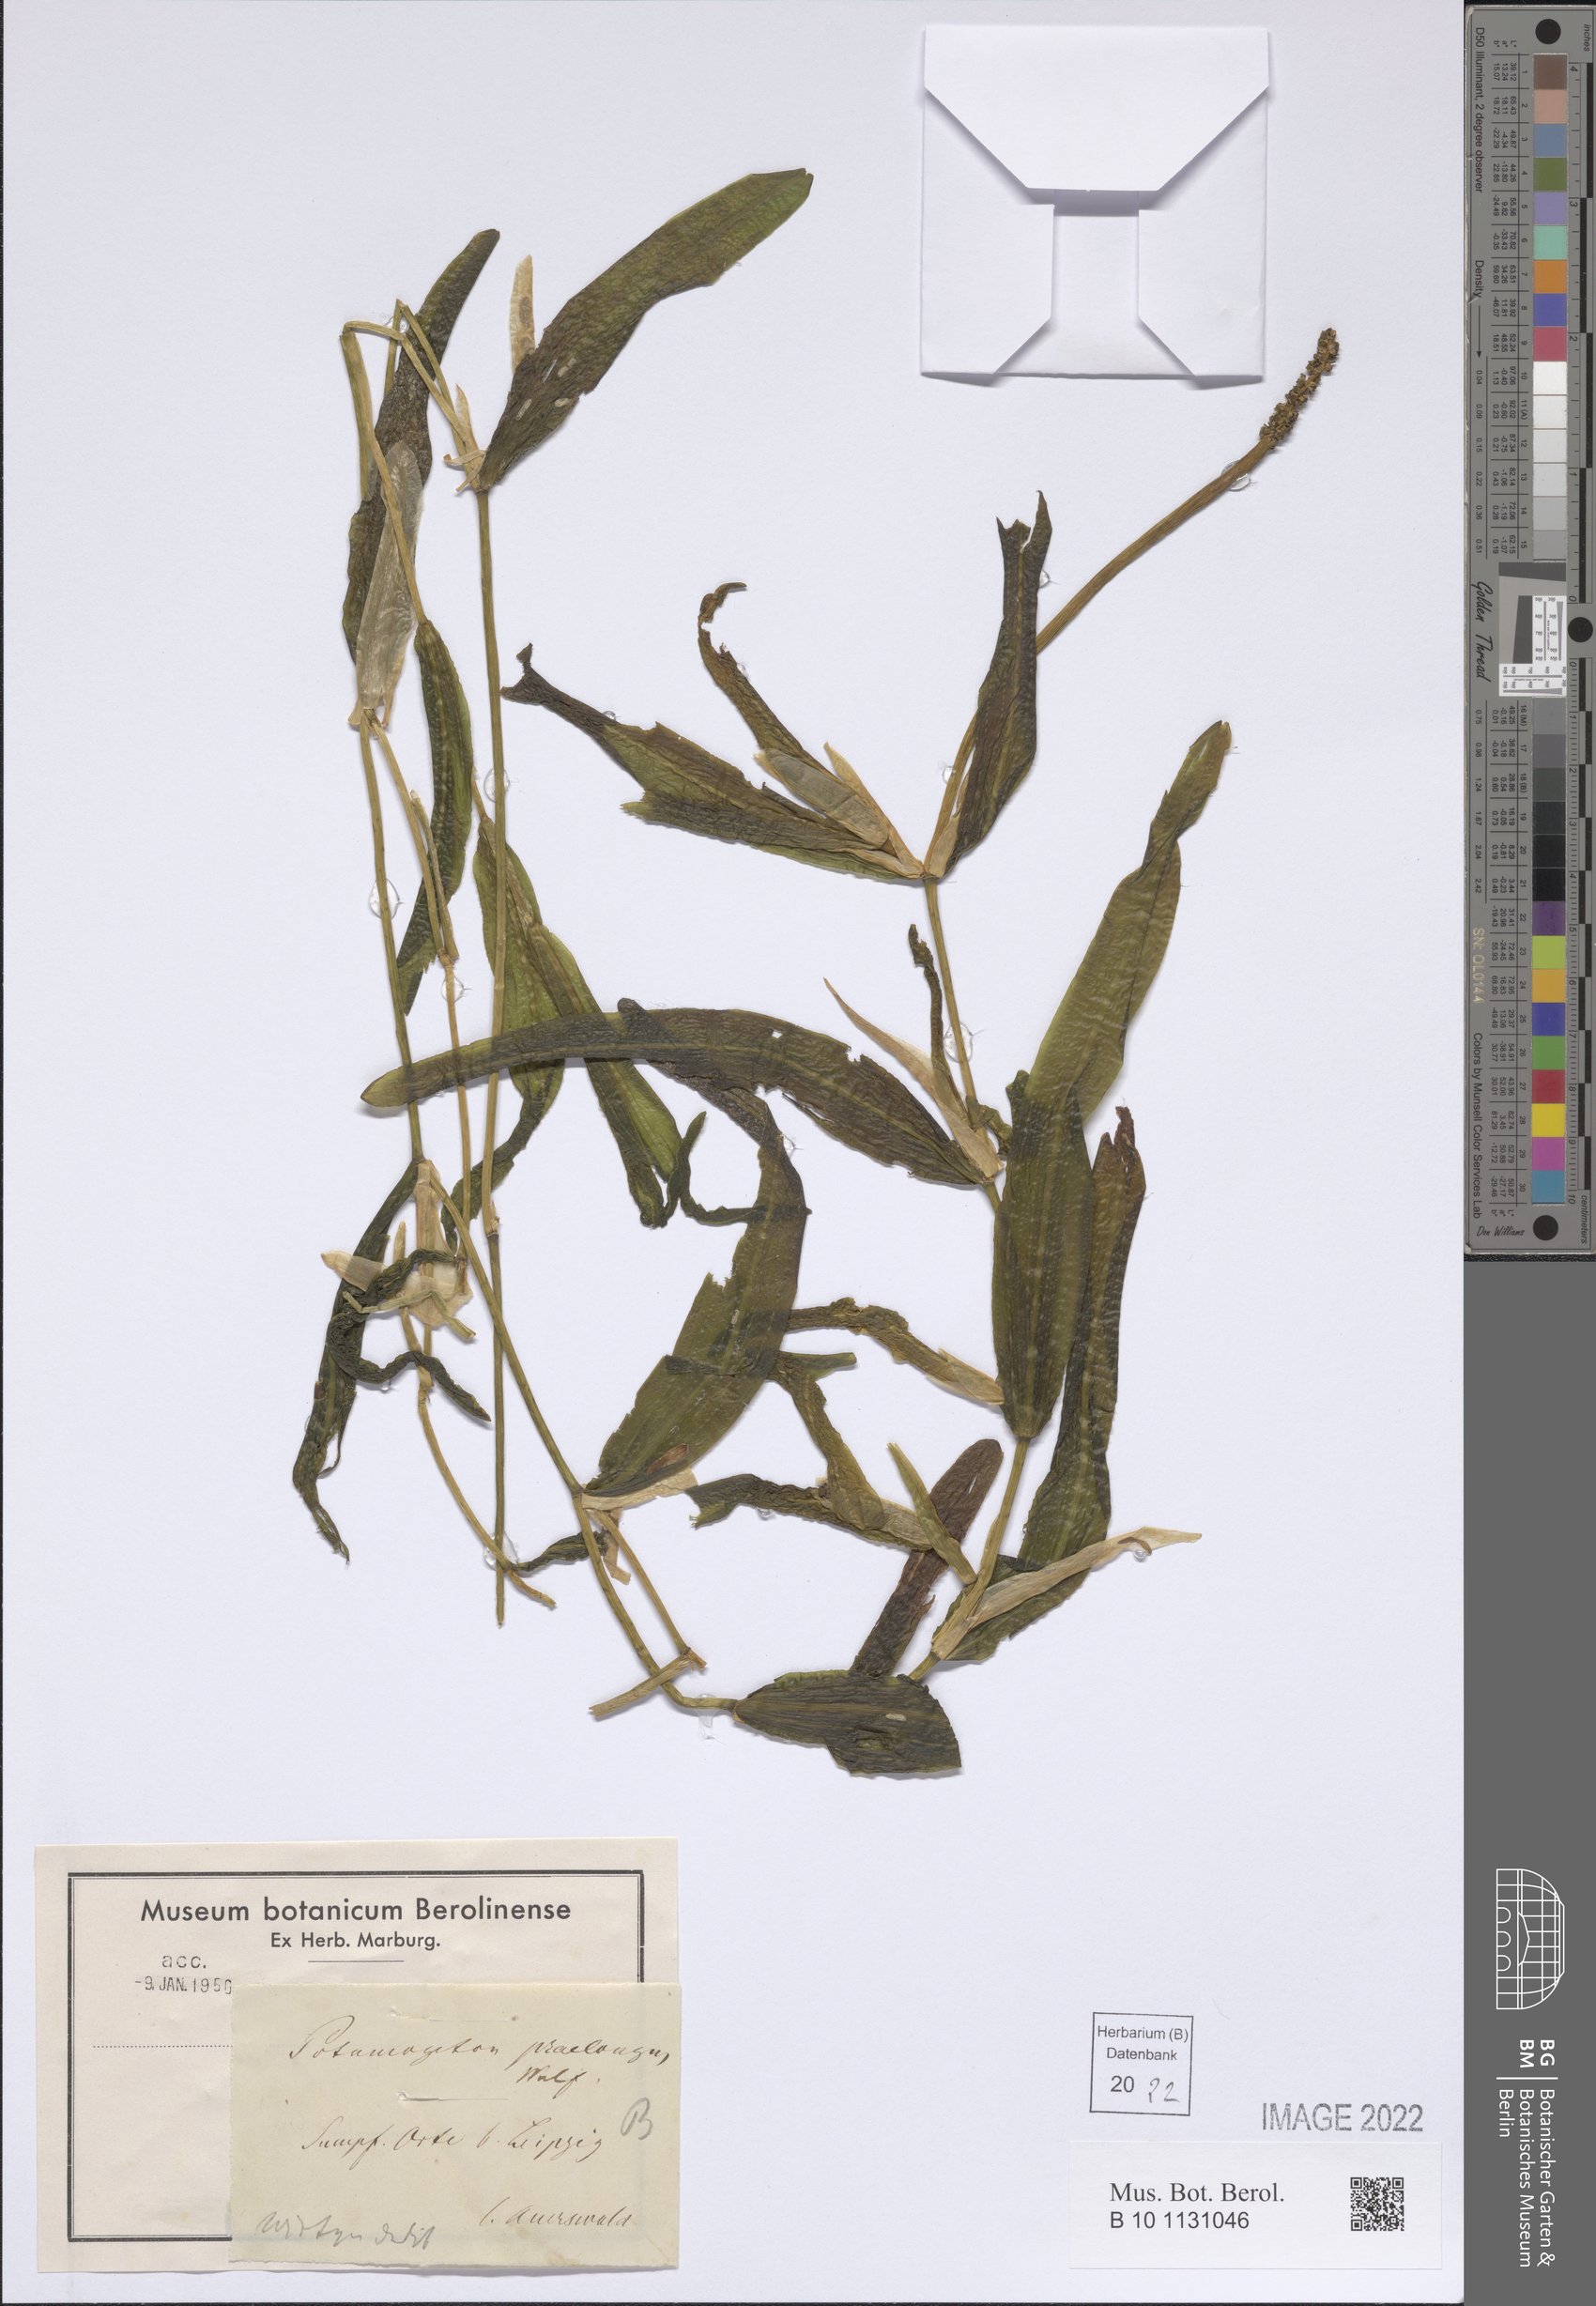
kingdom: Plantae
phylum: Tracheophyta
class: Liliopsida
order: Alismatales
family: Potamogetonaceae
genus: Potamogeton
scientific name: Potamogeton praelongus
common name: Long-stalked pondweed
